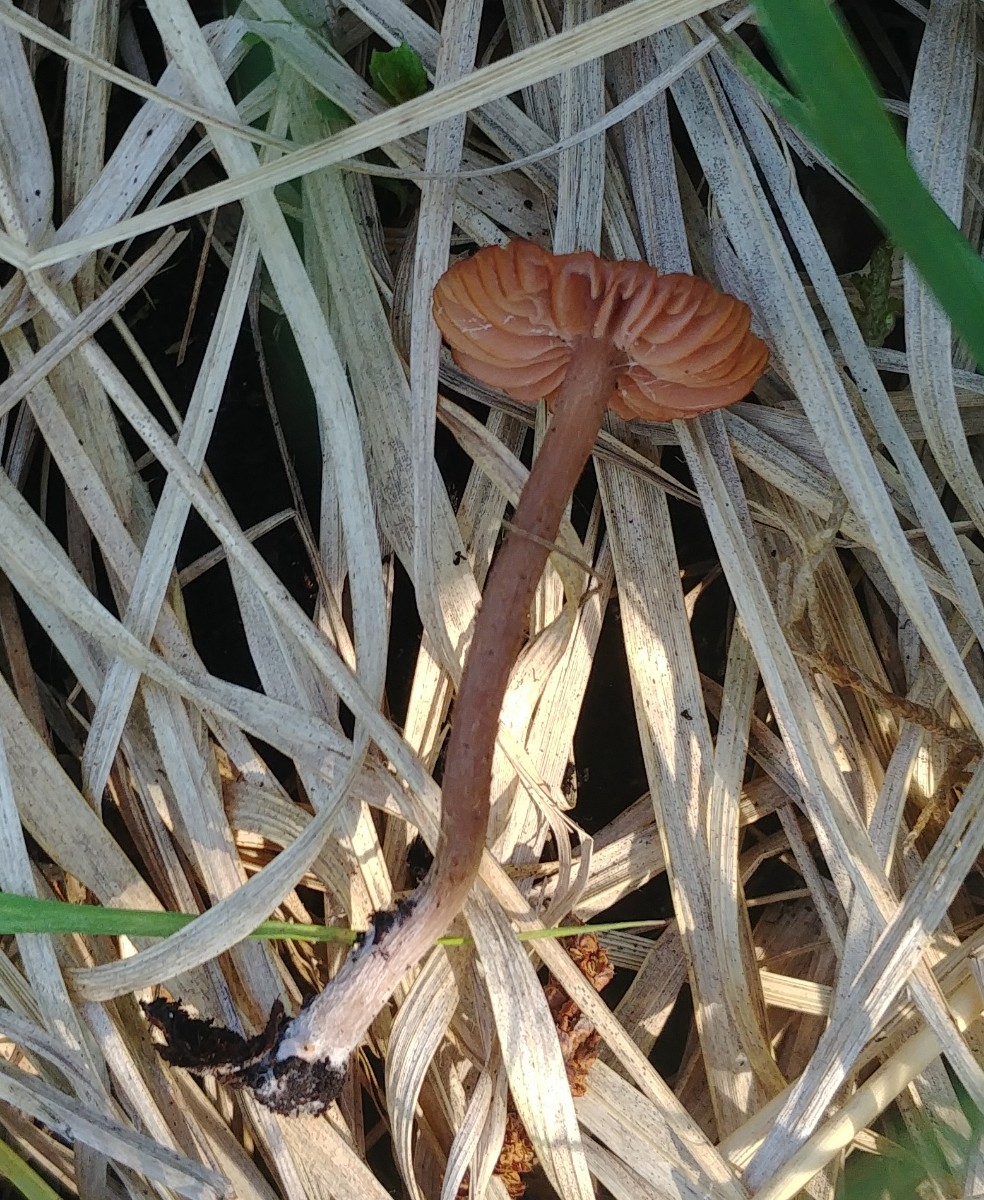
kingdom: Fungi
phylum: Basidiomycota
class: Agaricomycetes
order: Agaricales
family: Hydnangiaceae
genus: Laccaria
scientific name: Laccaria laccata
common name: rød ametysthat
